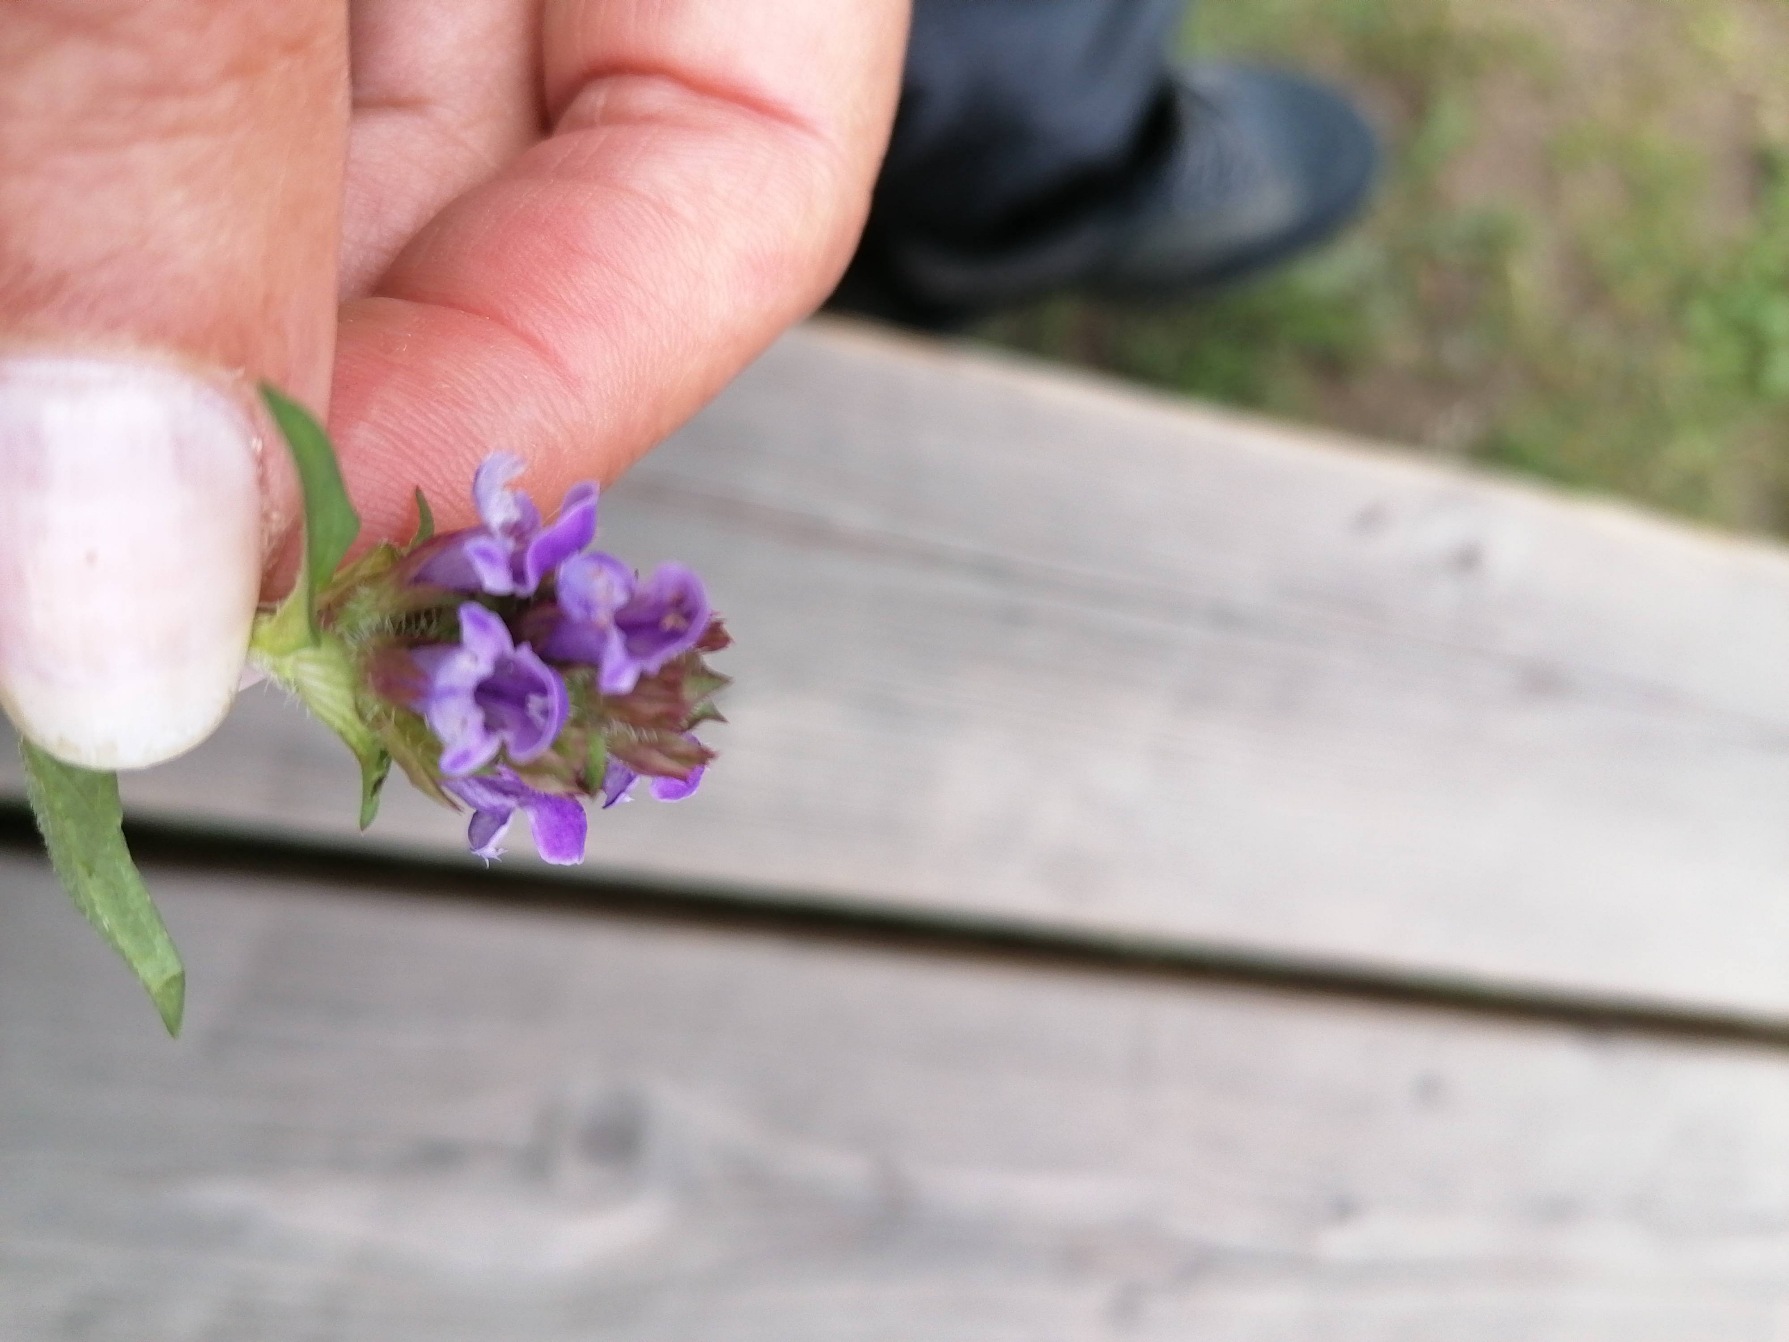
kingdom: Plantae
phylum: Tracheophyta
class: Magnoliopsida
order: Lamiales
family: Lamiaceae
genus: Prunella
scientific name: Prunella vulgaris
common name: Almindelig brunelle
